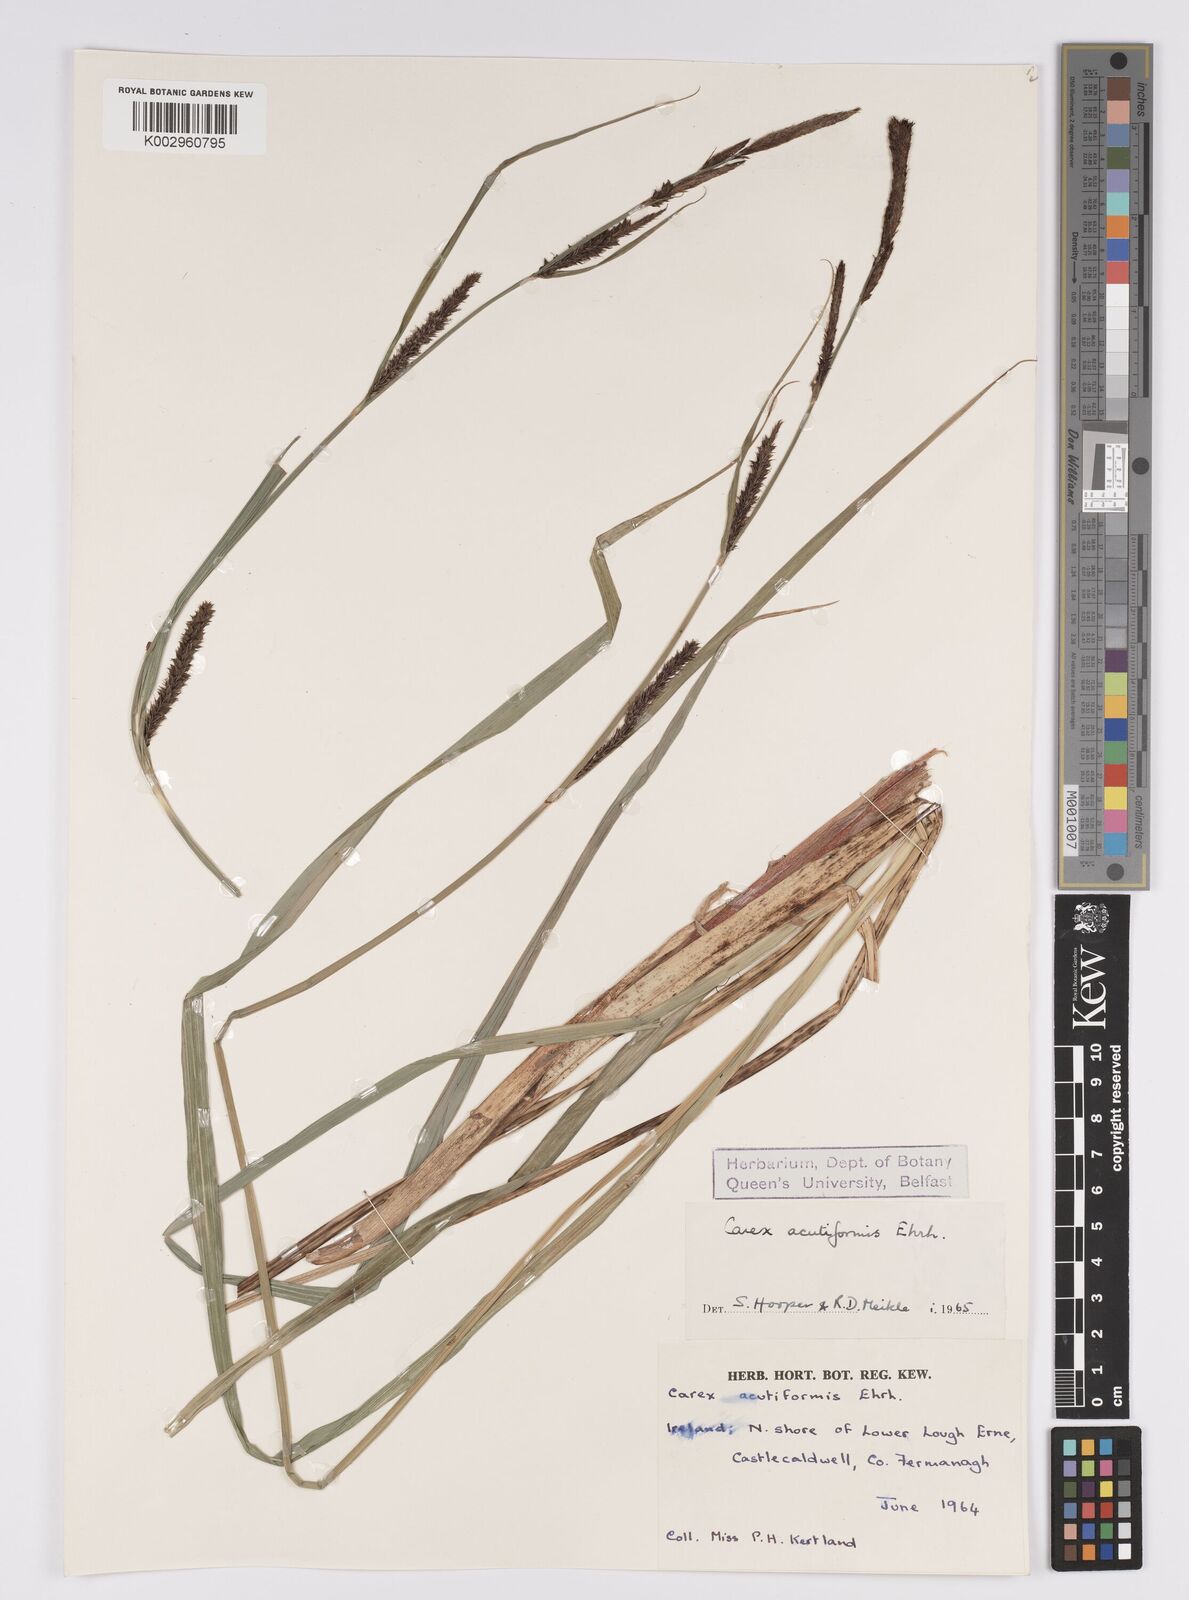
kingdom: Plantae
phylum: Tracheophyta
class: Liliopsida
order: Poales
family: Cyperaceae
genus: Carex
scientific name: Carex acutiformis
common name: Lesser pond-sedge
